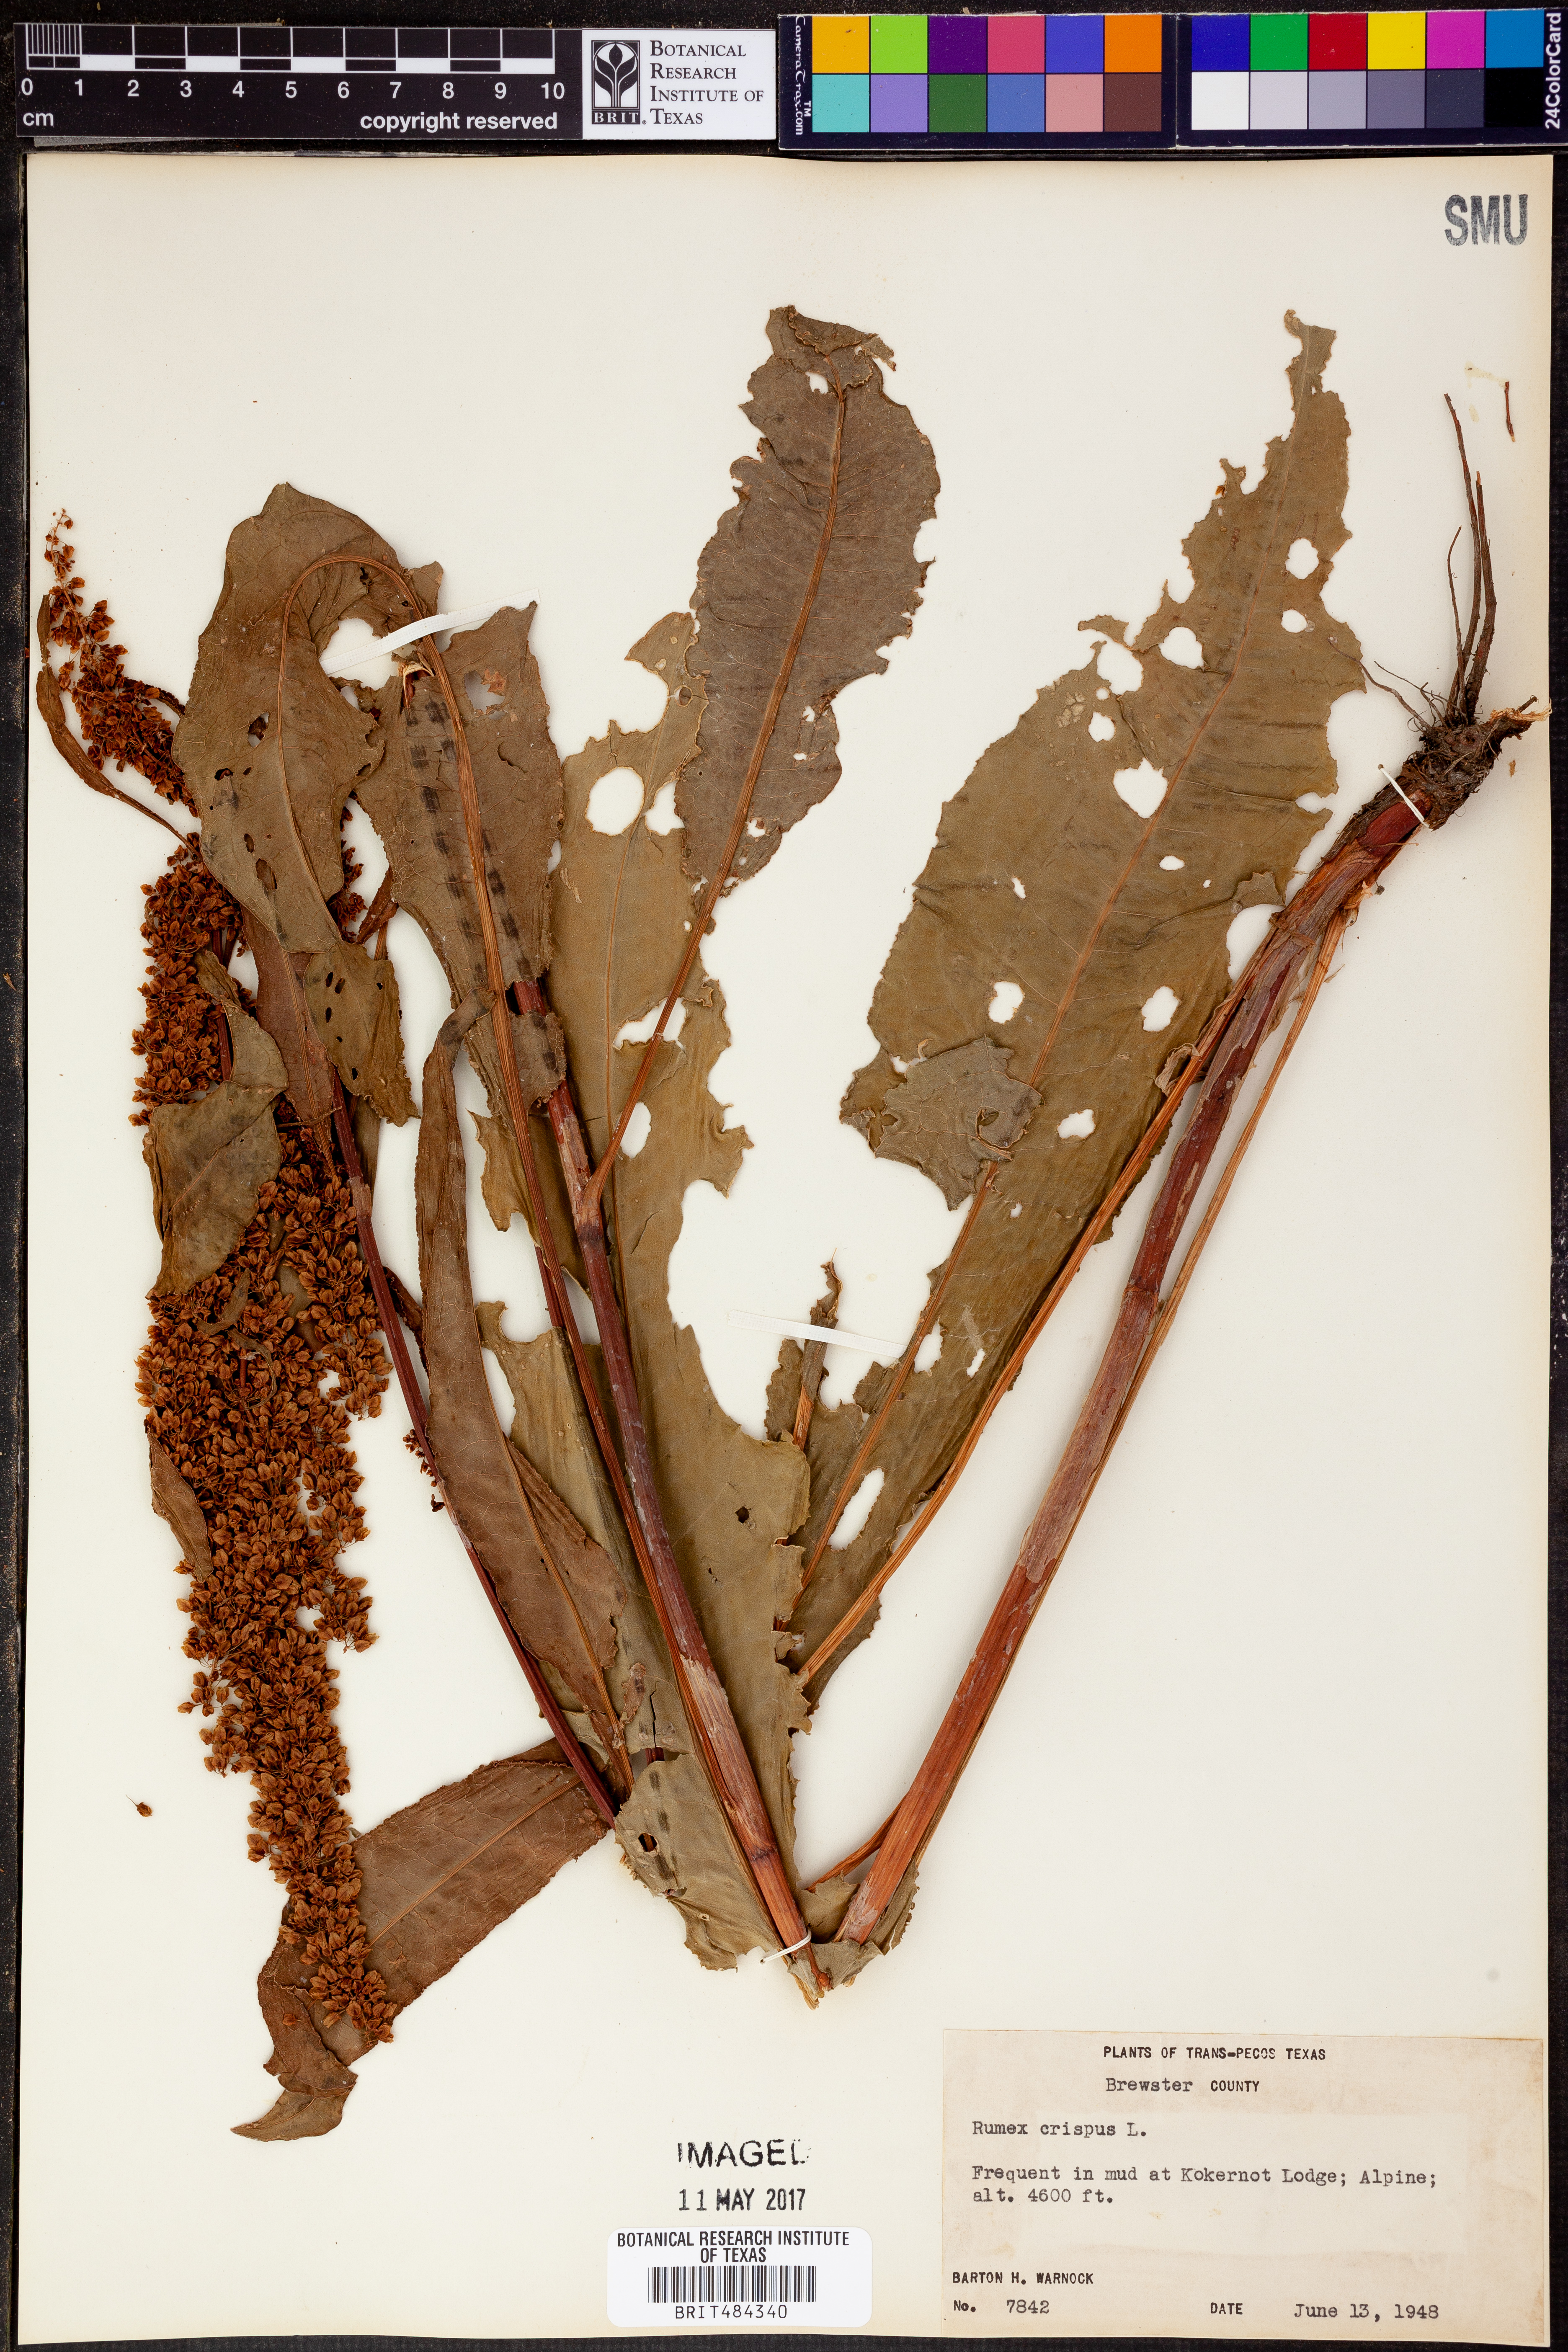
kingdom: Plantae
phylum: Tracheophyta
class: Magnoliopsida
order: Caryophyllales
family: Polygonaceae
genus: Rumex
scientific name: Rumex crispus
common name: Curled dock
